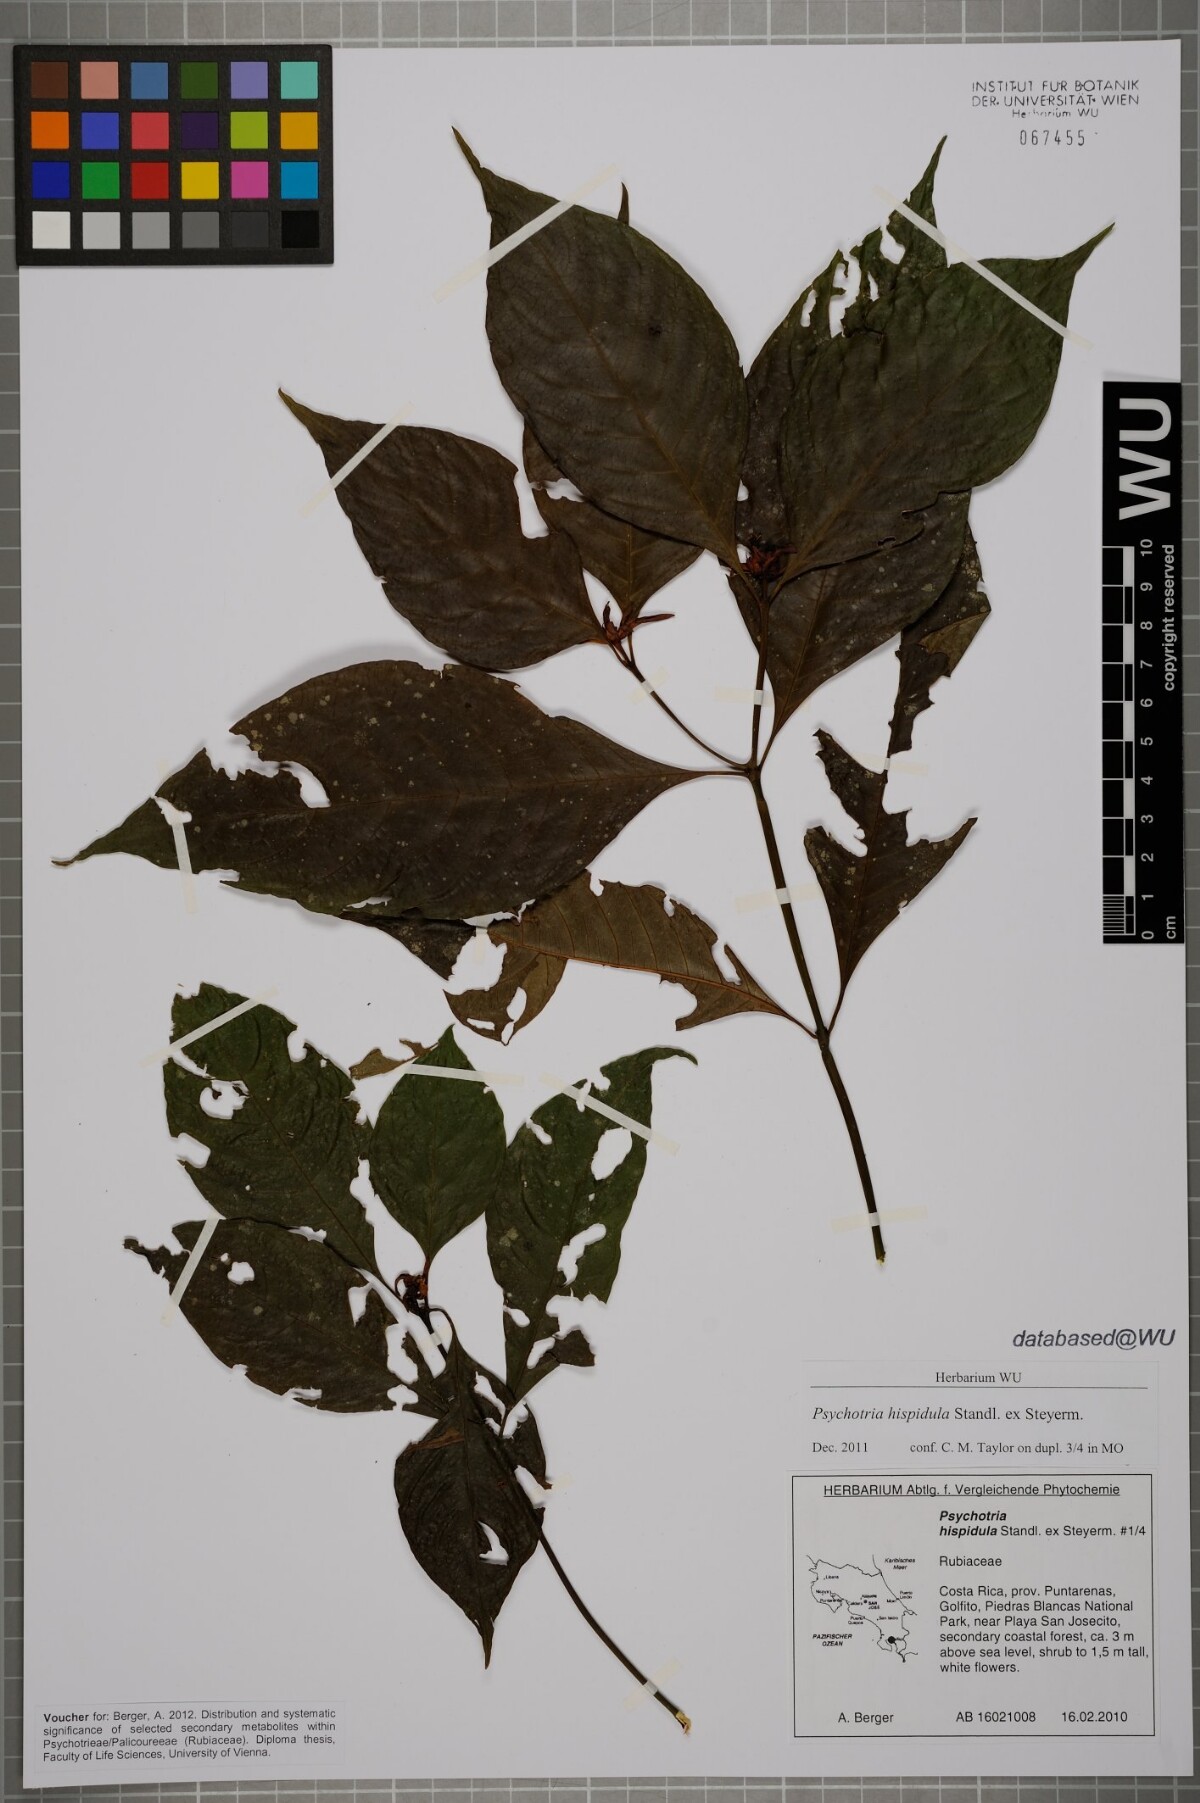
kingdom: Plantae
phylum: Tracheophyta
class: Magnoliopsida
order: Gentianales
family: Rubiaceae
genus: Palicourea
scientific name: Palicourea longiinvolucrata
